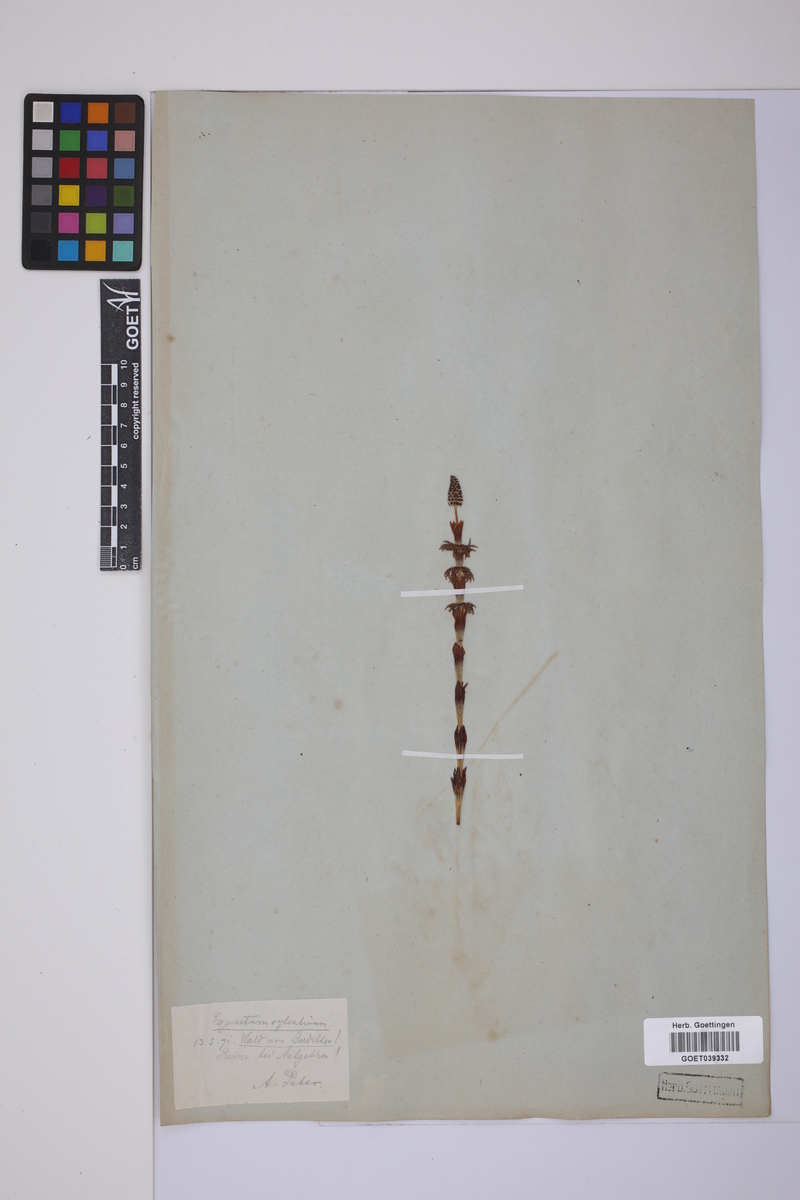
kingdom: Plantae
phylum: Tracheophyta
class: Polypodiopsida
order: Equisetales
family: Equisetaceae
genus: Equisetum
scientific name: Equisetum sylvaticum
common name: Wood horsetail
